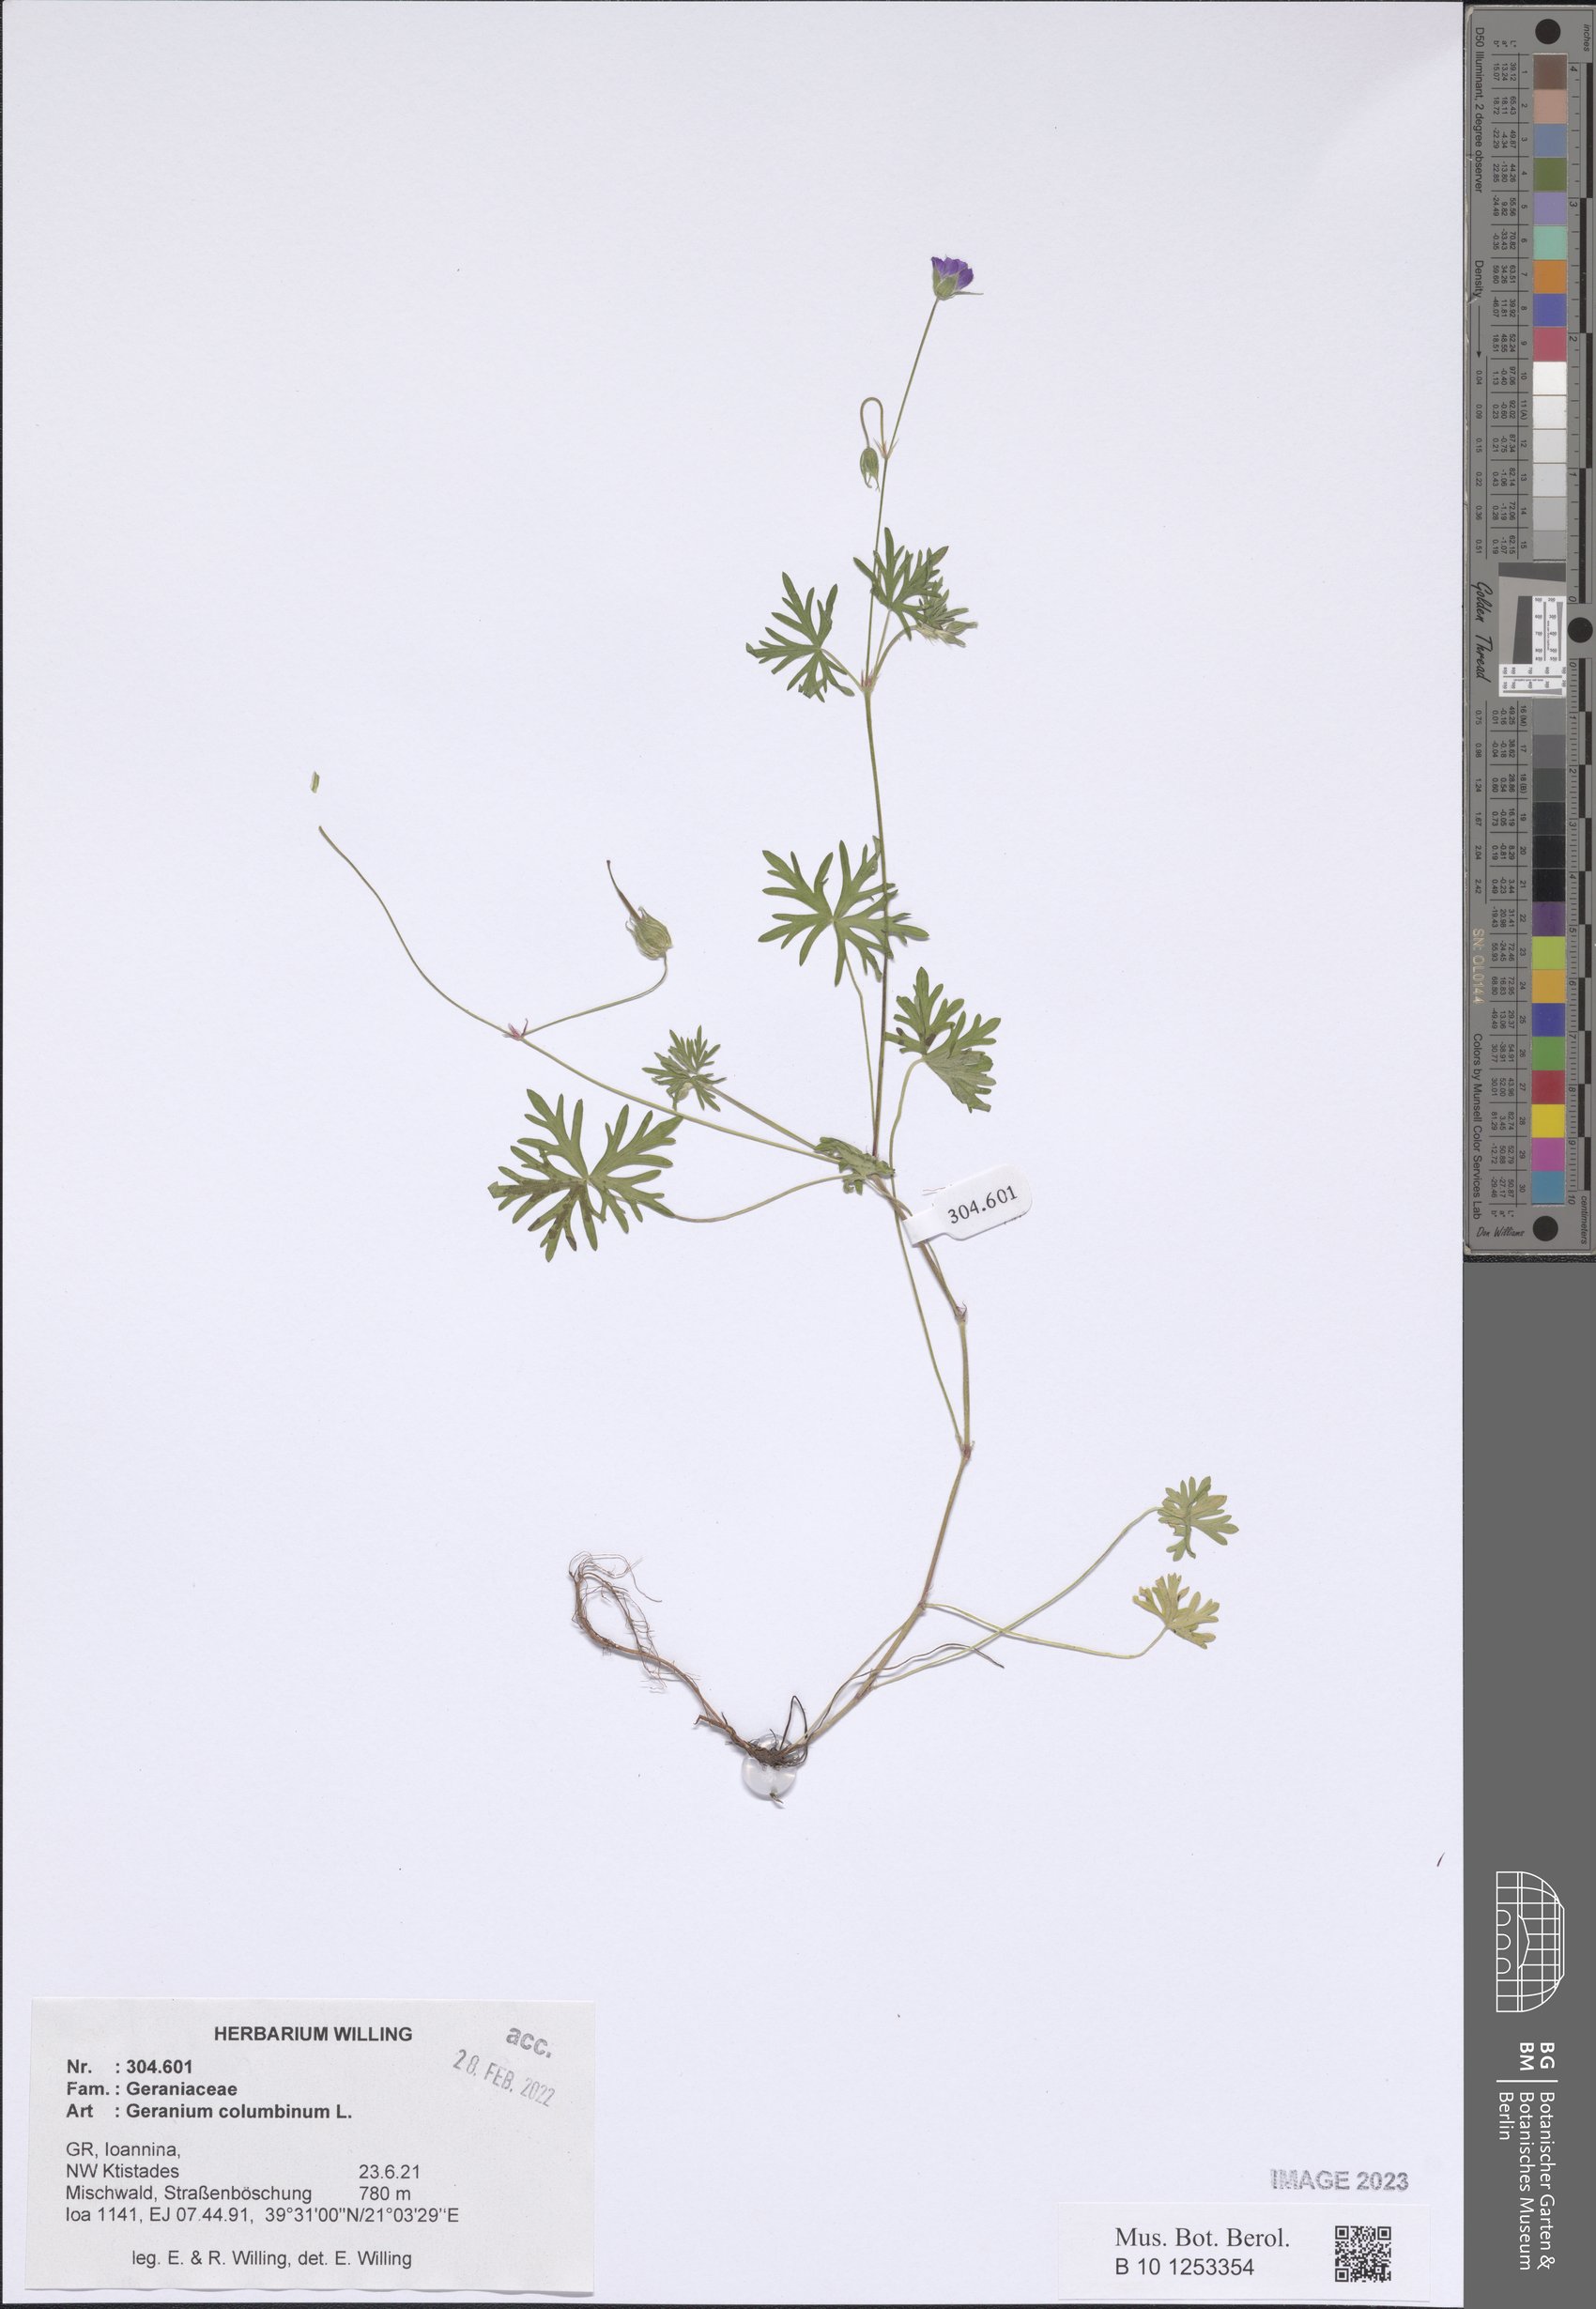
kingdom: Plantae
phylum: Tracheophyta
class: Magnoliopsida
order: Geraniales
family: Geraniaceae
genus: Geranium
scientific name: Geranium columbinum
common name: Long-stalked crane's-bill
